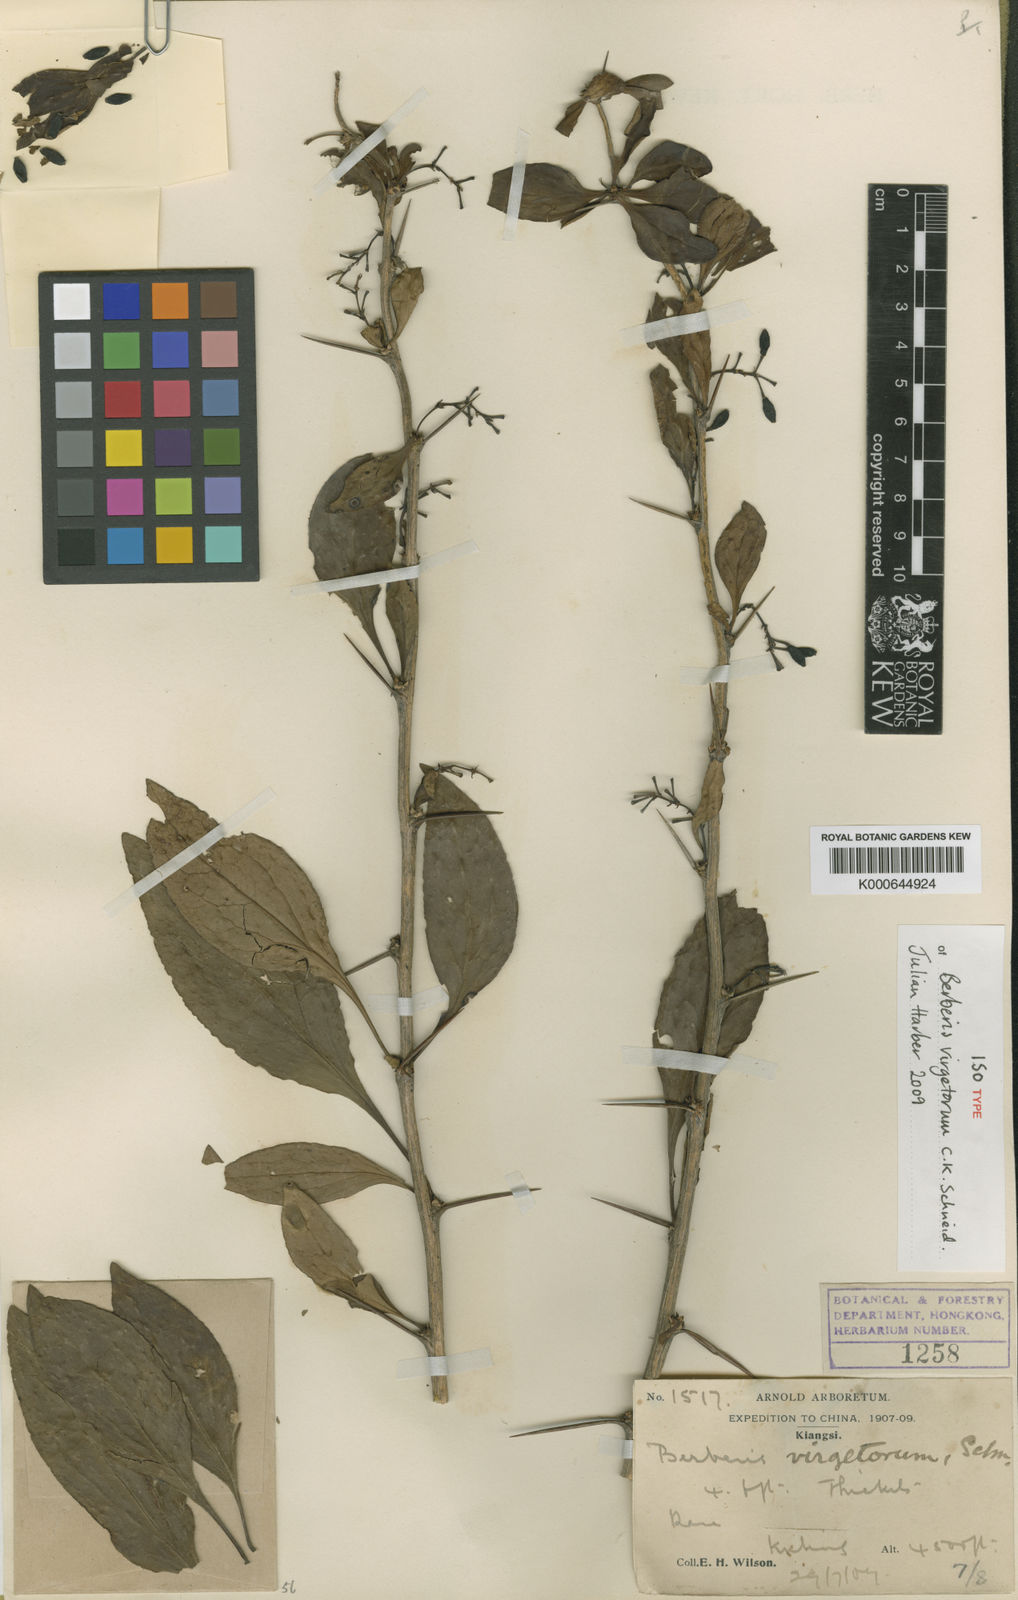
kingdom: Plantae
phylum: Tracheophyta
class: Magnoliopsida
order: Ranunculales
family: Berberidaceae
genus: Berberis
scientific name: Berberis virgetorum
